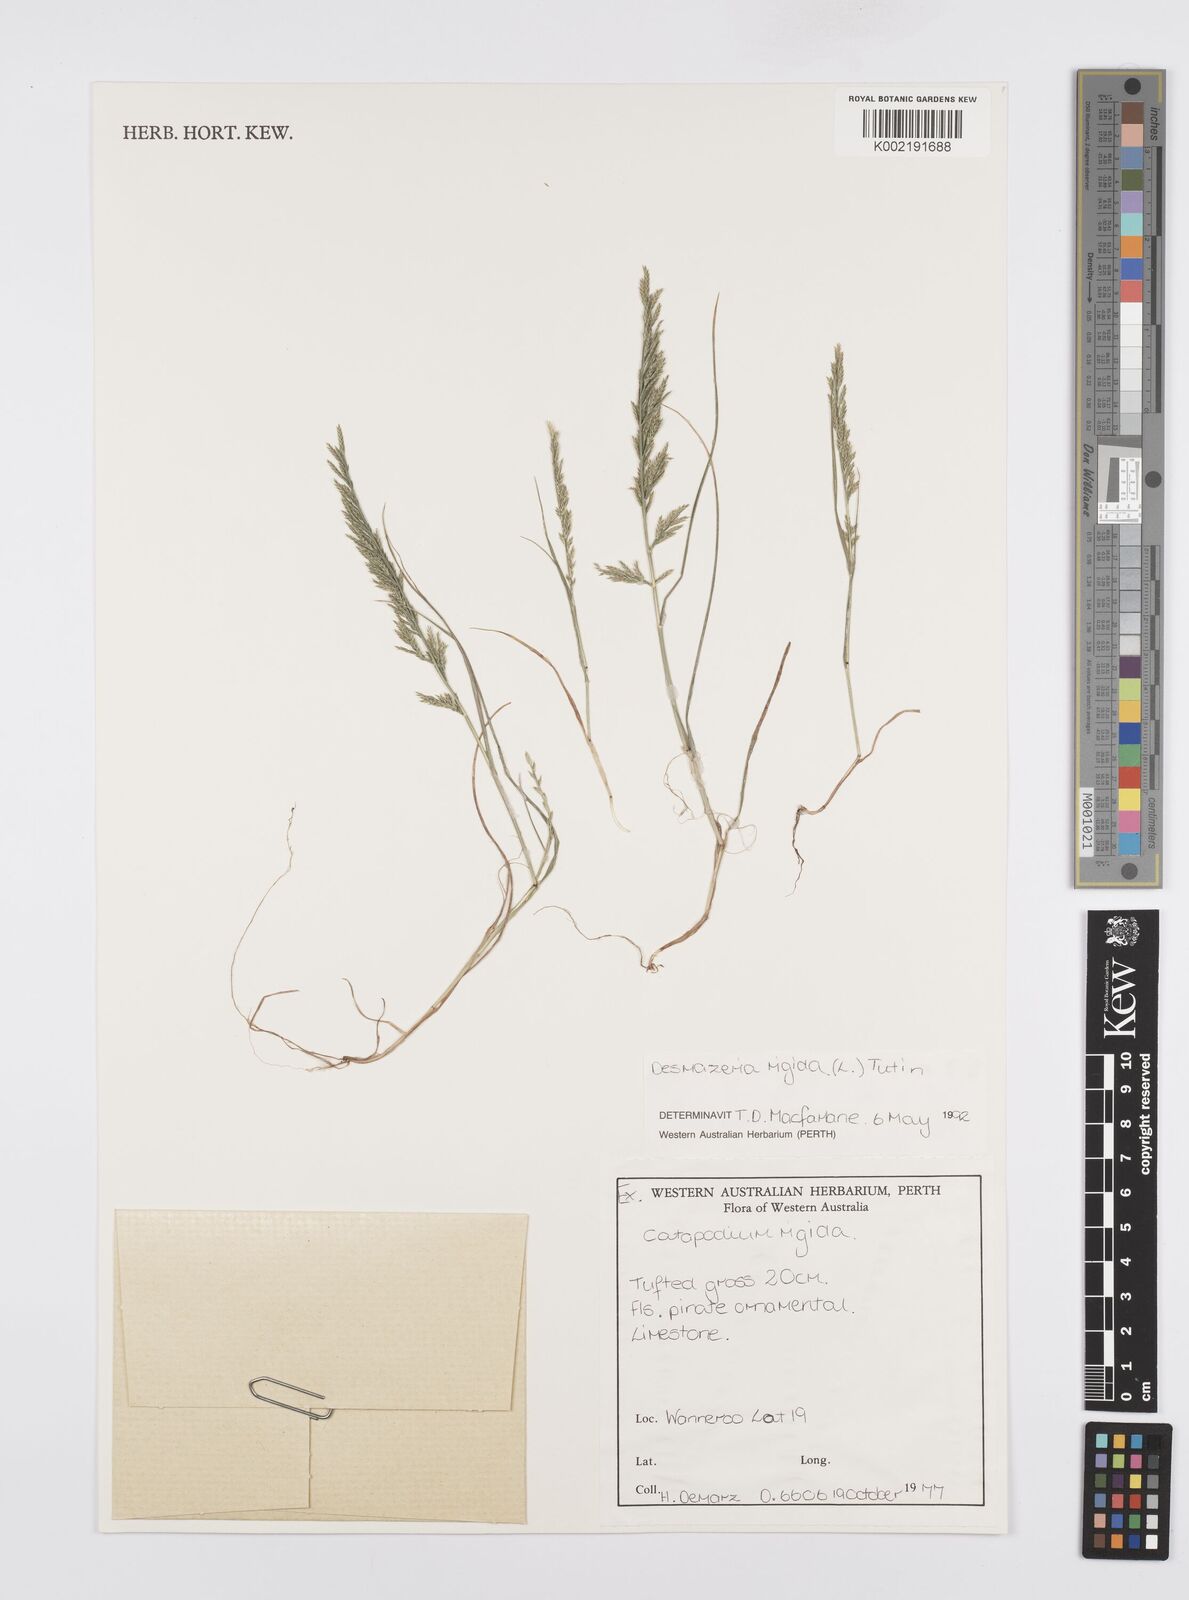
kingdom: Plantae
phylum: Tracheophyta
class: Liliopsida
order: Poales
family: Poaceae
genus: Catapodium
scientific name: Catapodium rigidum
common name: Fern-grass
